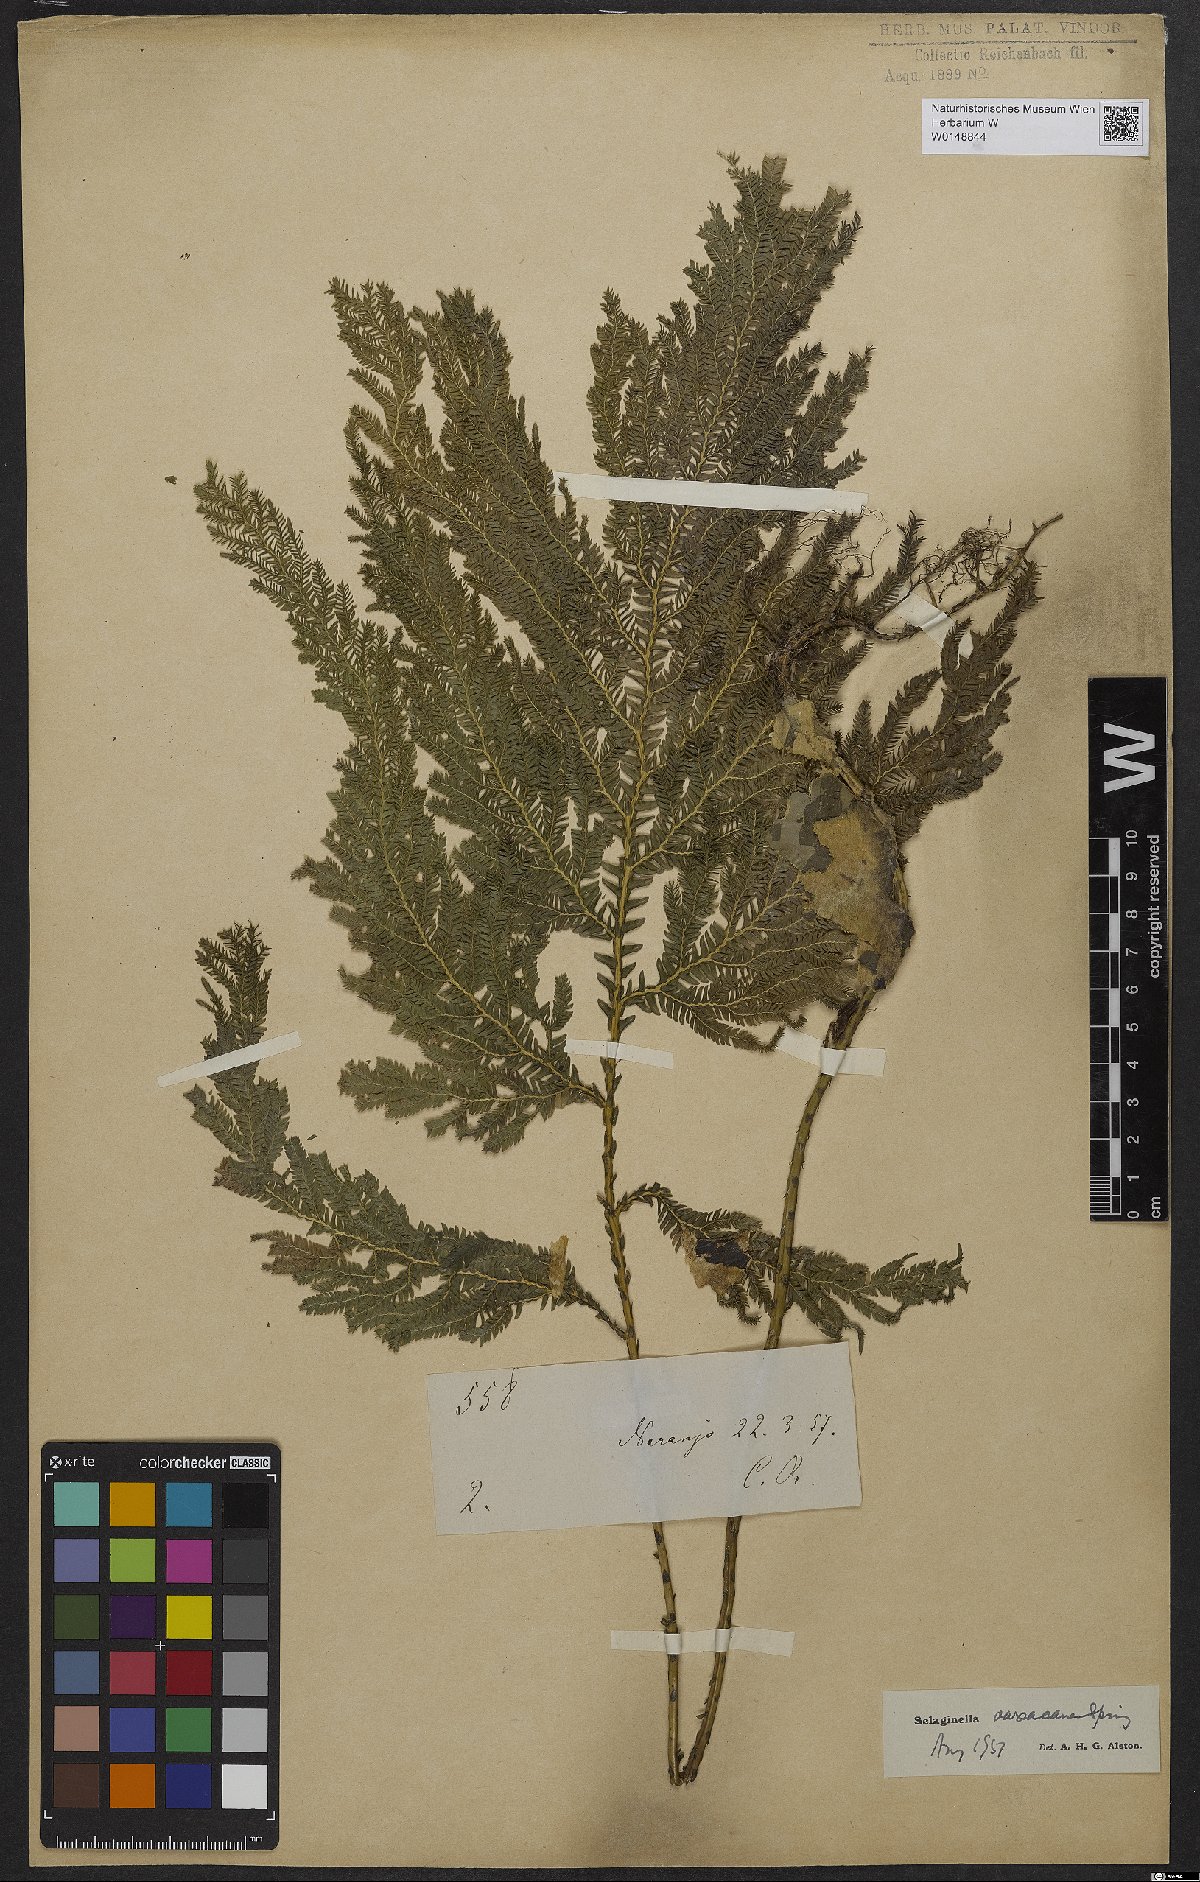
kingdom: Plantae
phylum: Tracheophyta
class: Lycopodiopsida
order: Selaginellales
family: Selaginellaceae
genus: Selaginella
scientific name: Selaginella oaxacana
